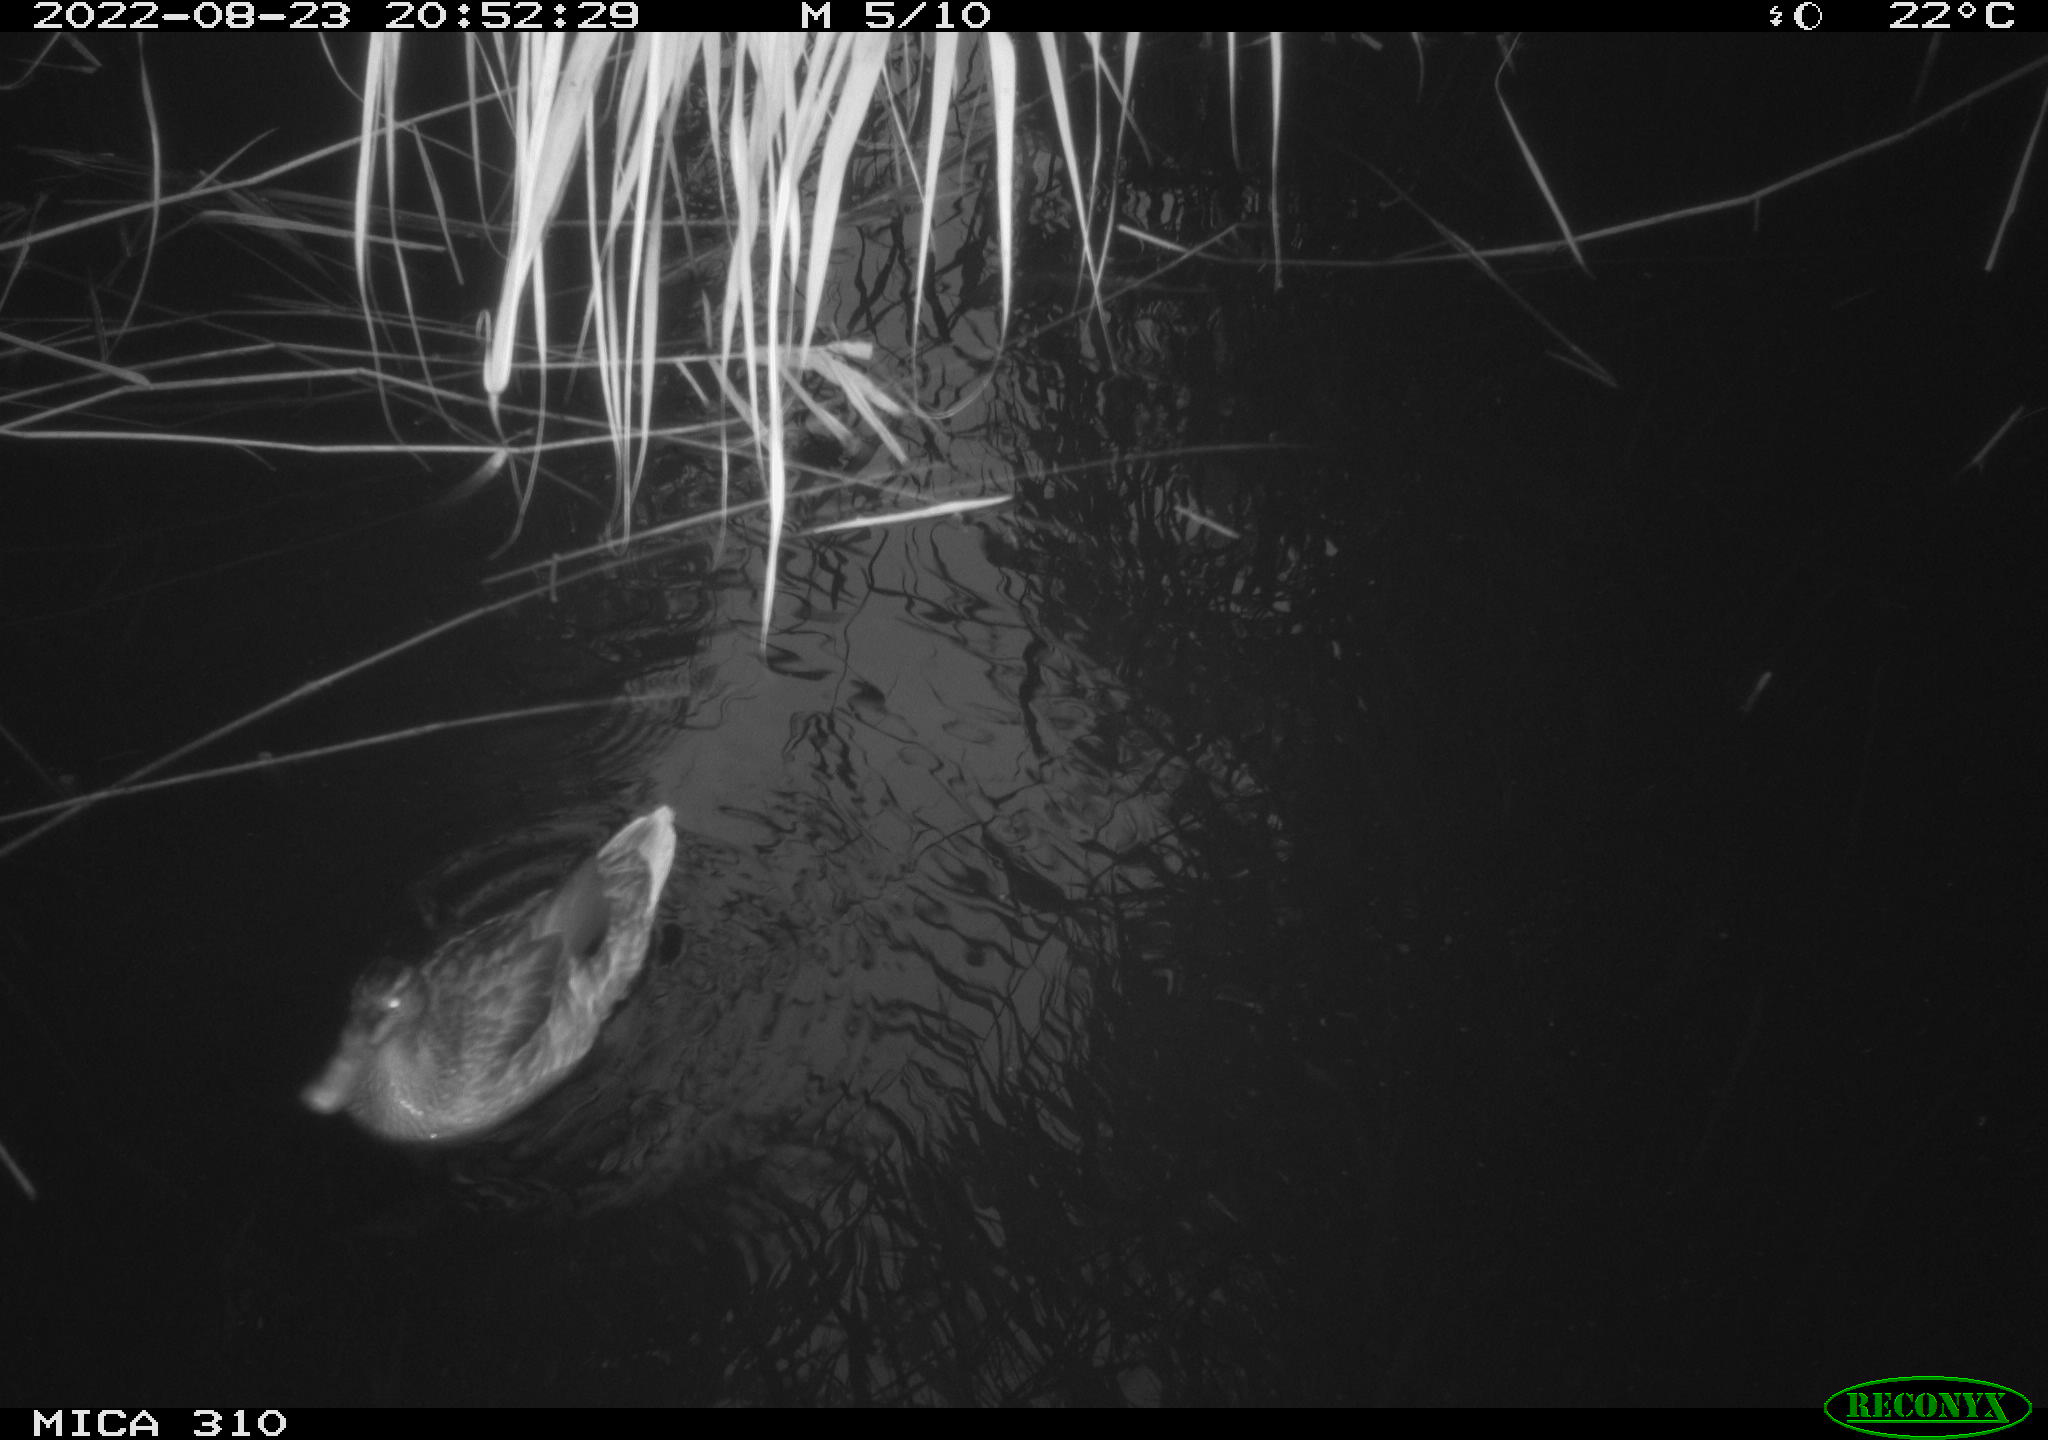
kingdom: Animalia
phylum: Chordata
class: Aves
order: Anseriformes
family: Anatidae
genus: Anas
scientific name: Anas platyrhynchos
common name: Mallard
